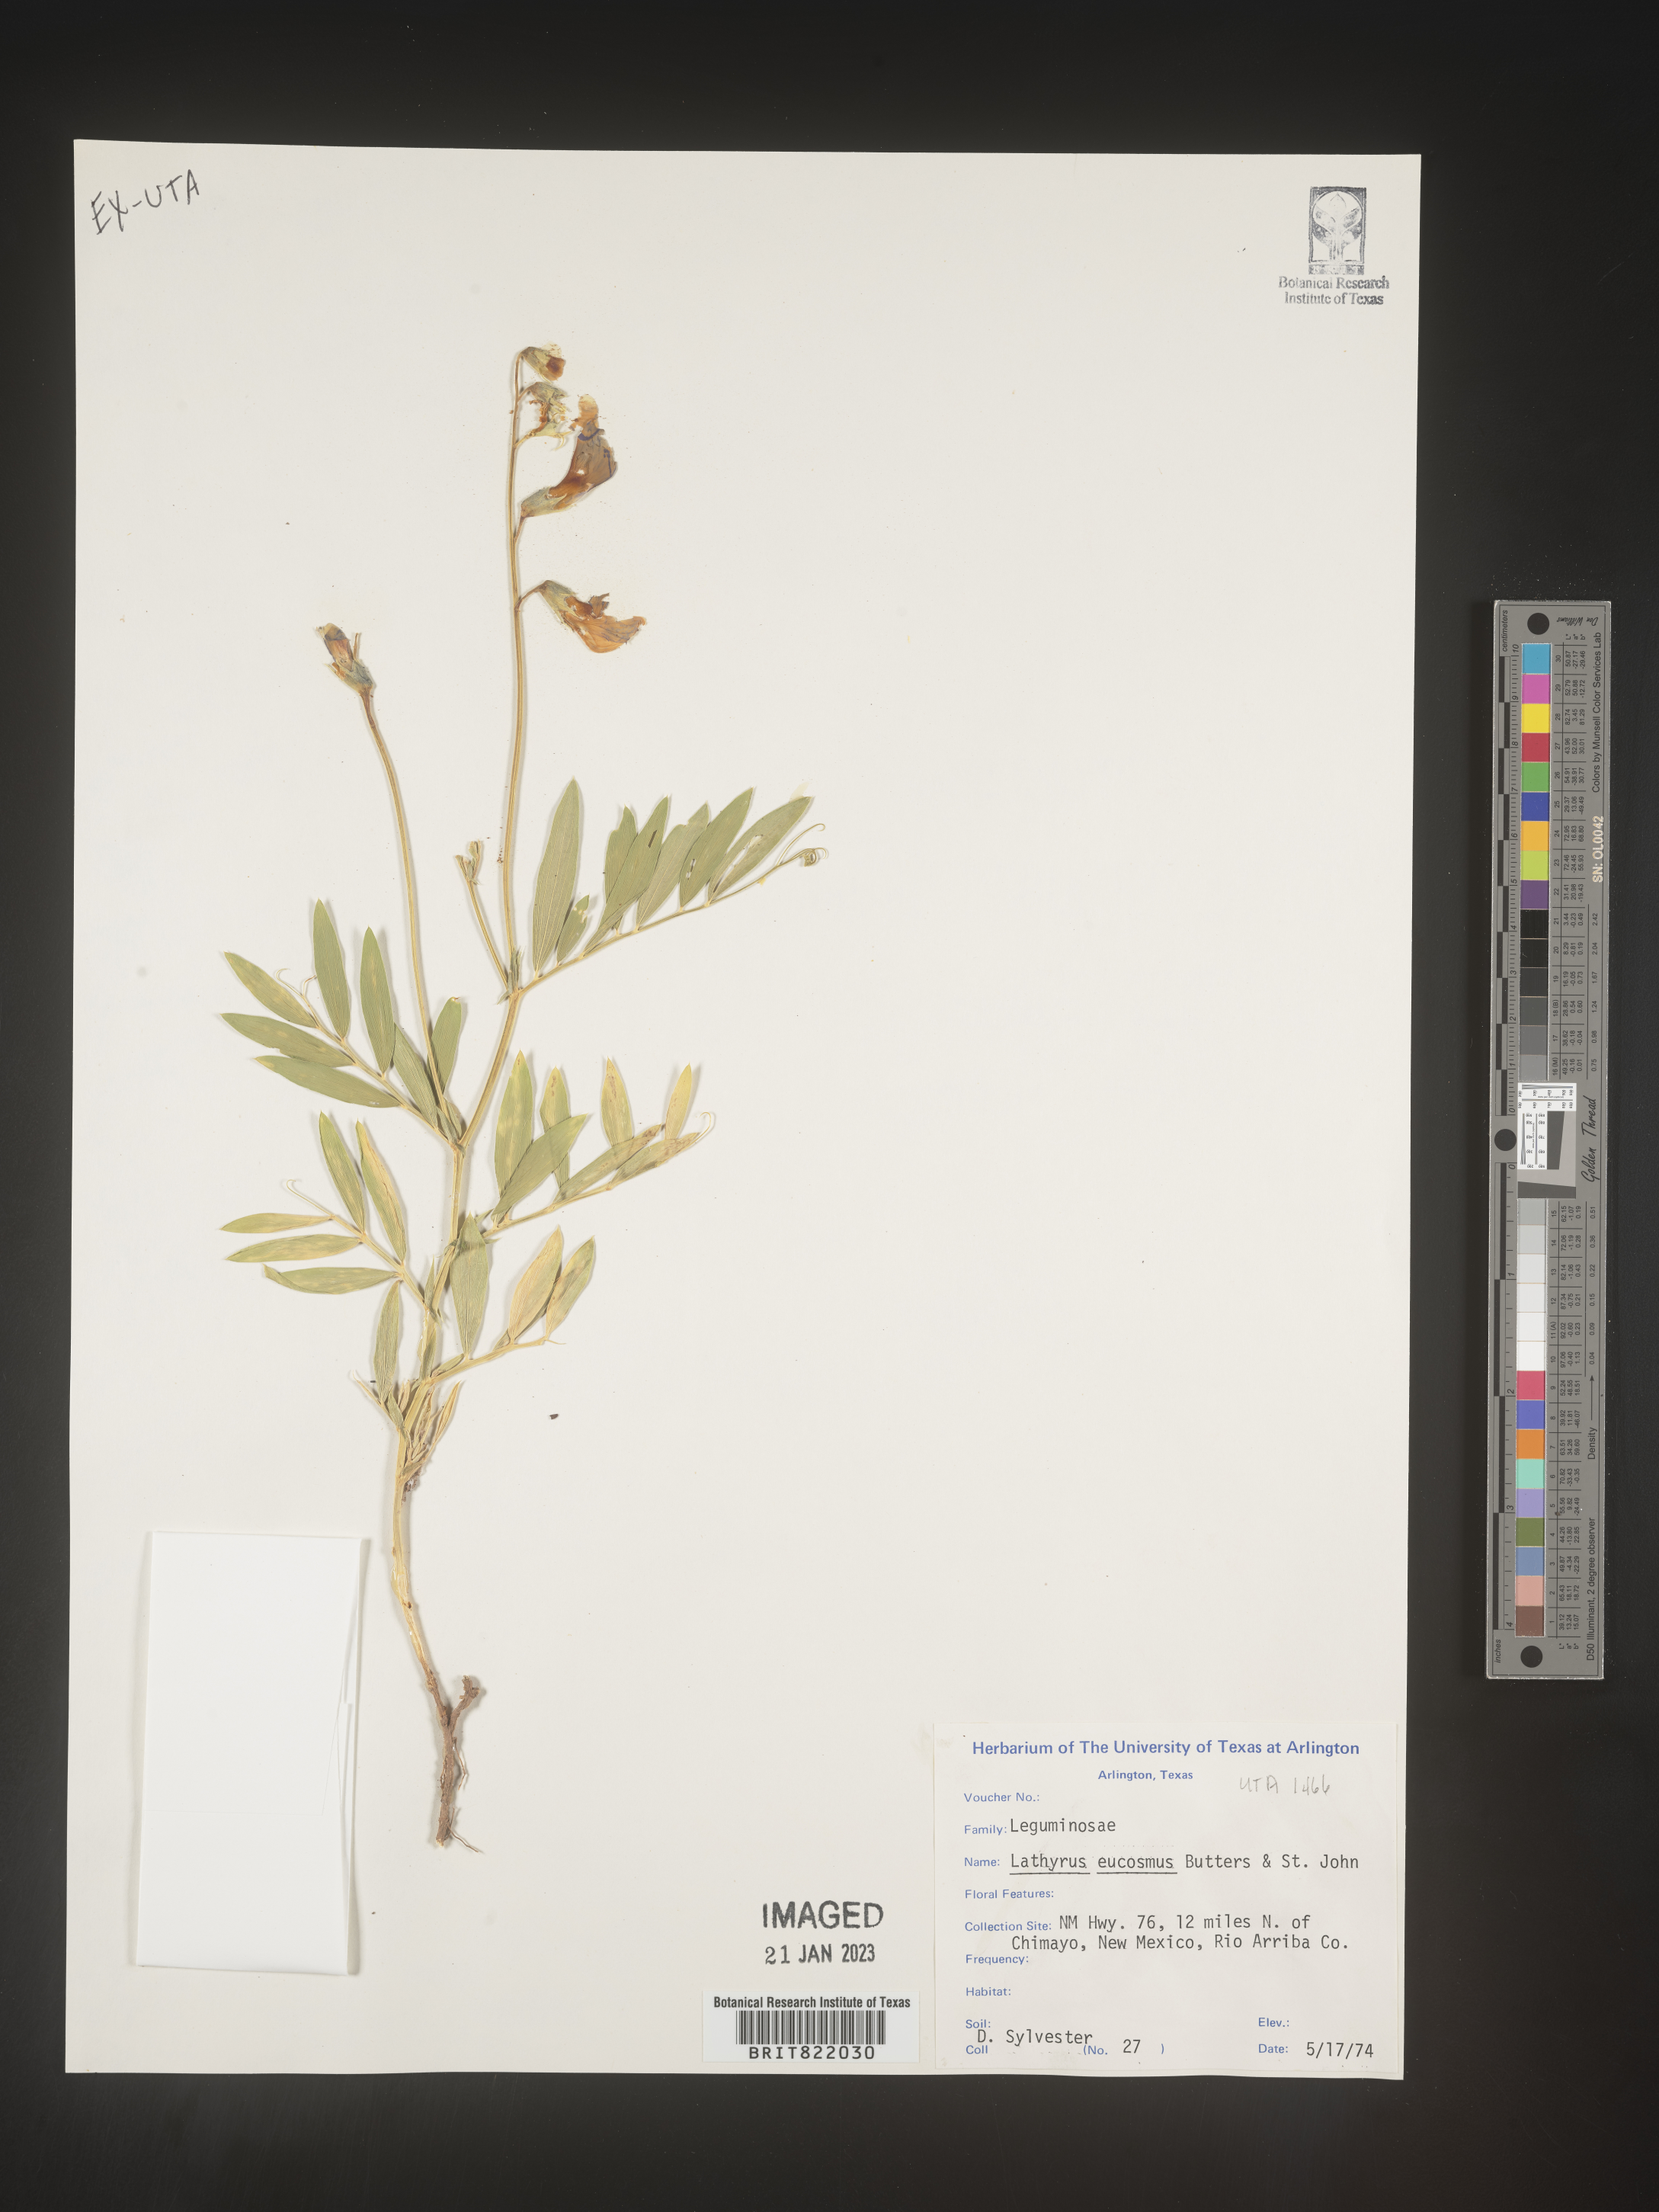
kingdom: Plantae
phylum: Tracheophyta
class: Magnoliopsida
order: Fabales
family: Fabaceae
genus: Lathyrus
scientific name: Lathyrus
